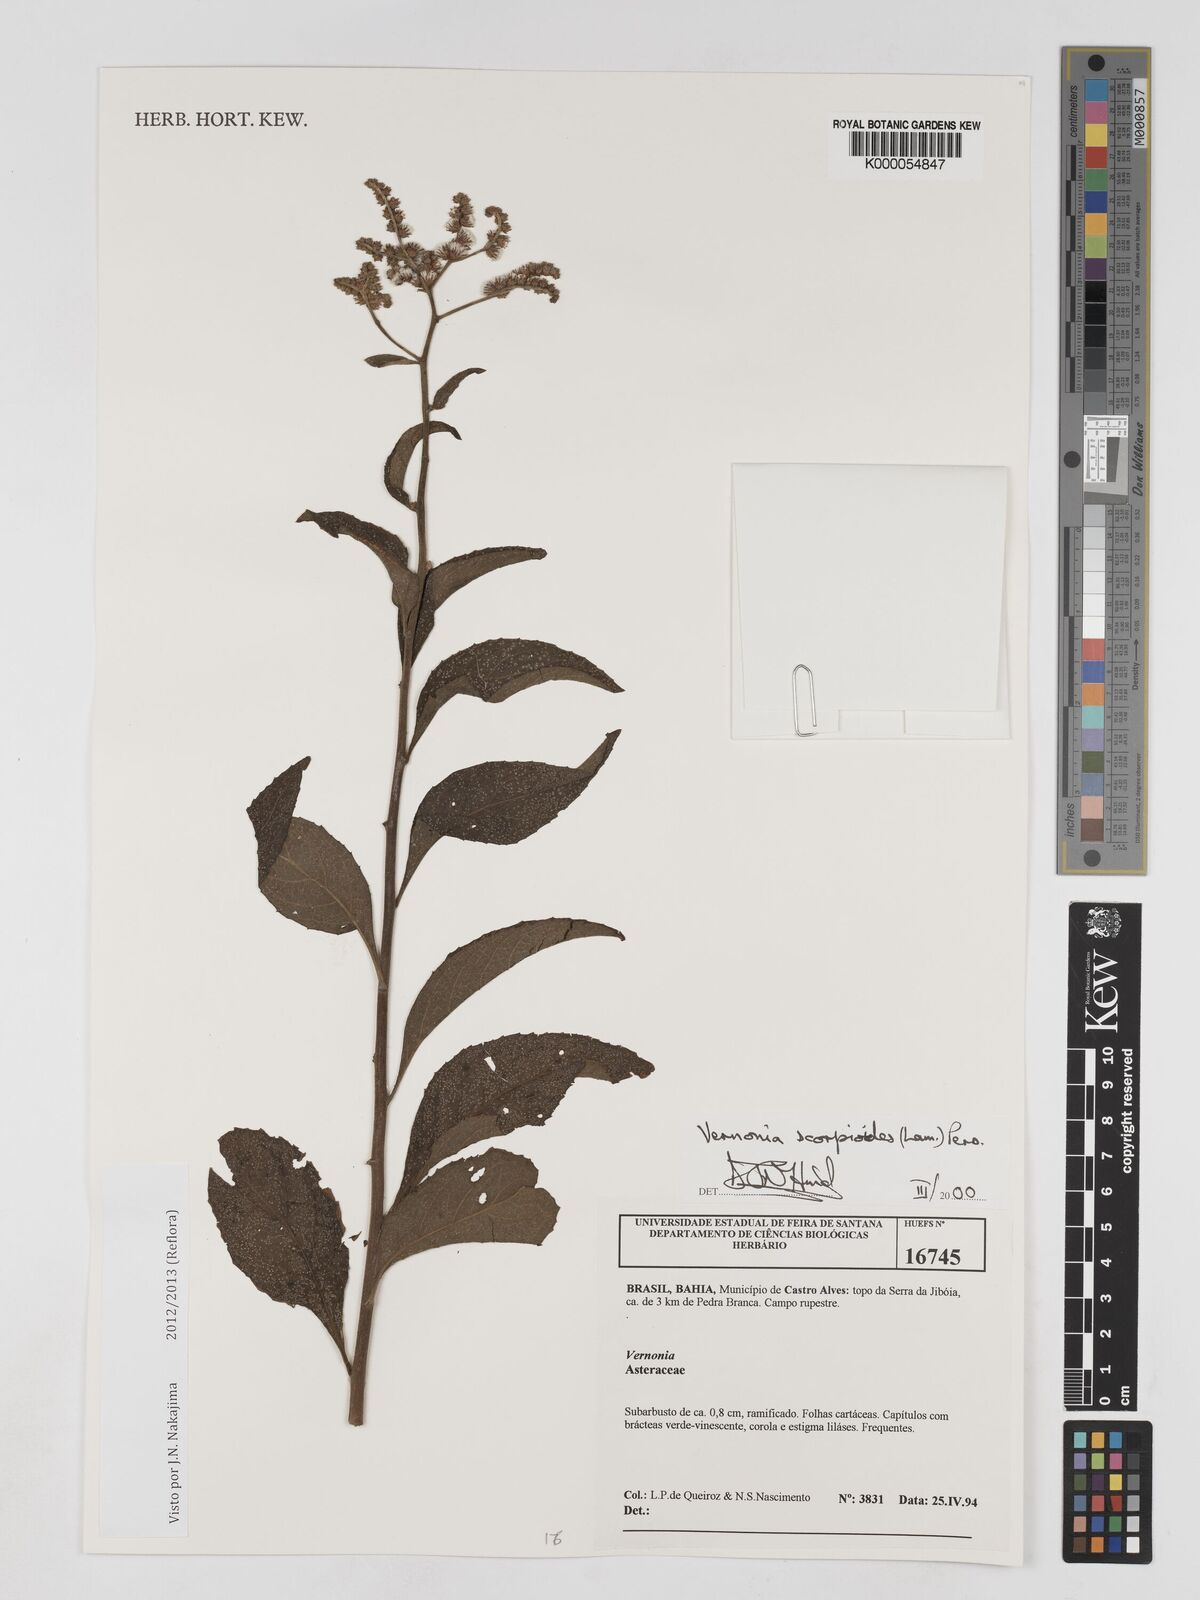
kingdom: Plantae
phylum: Tracheophyta
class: Magnoliopsida
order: Asterales
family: Asteraceae
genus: Cyrtocymura
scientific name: Cyrtocymura scorpioides
